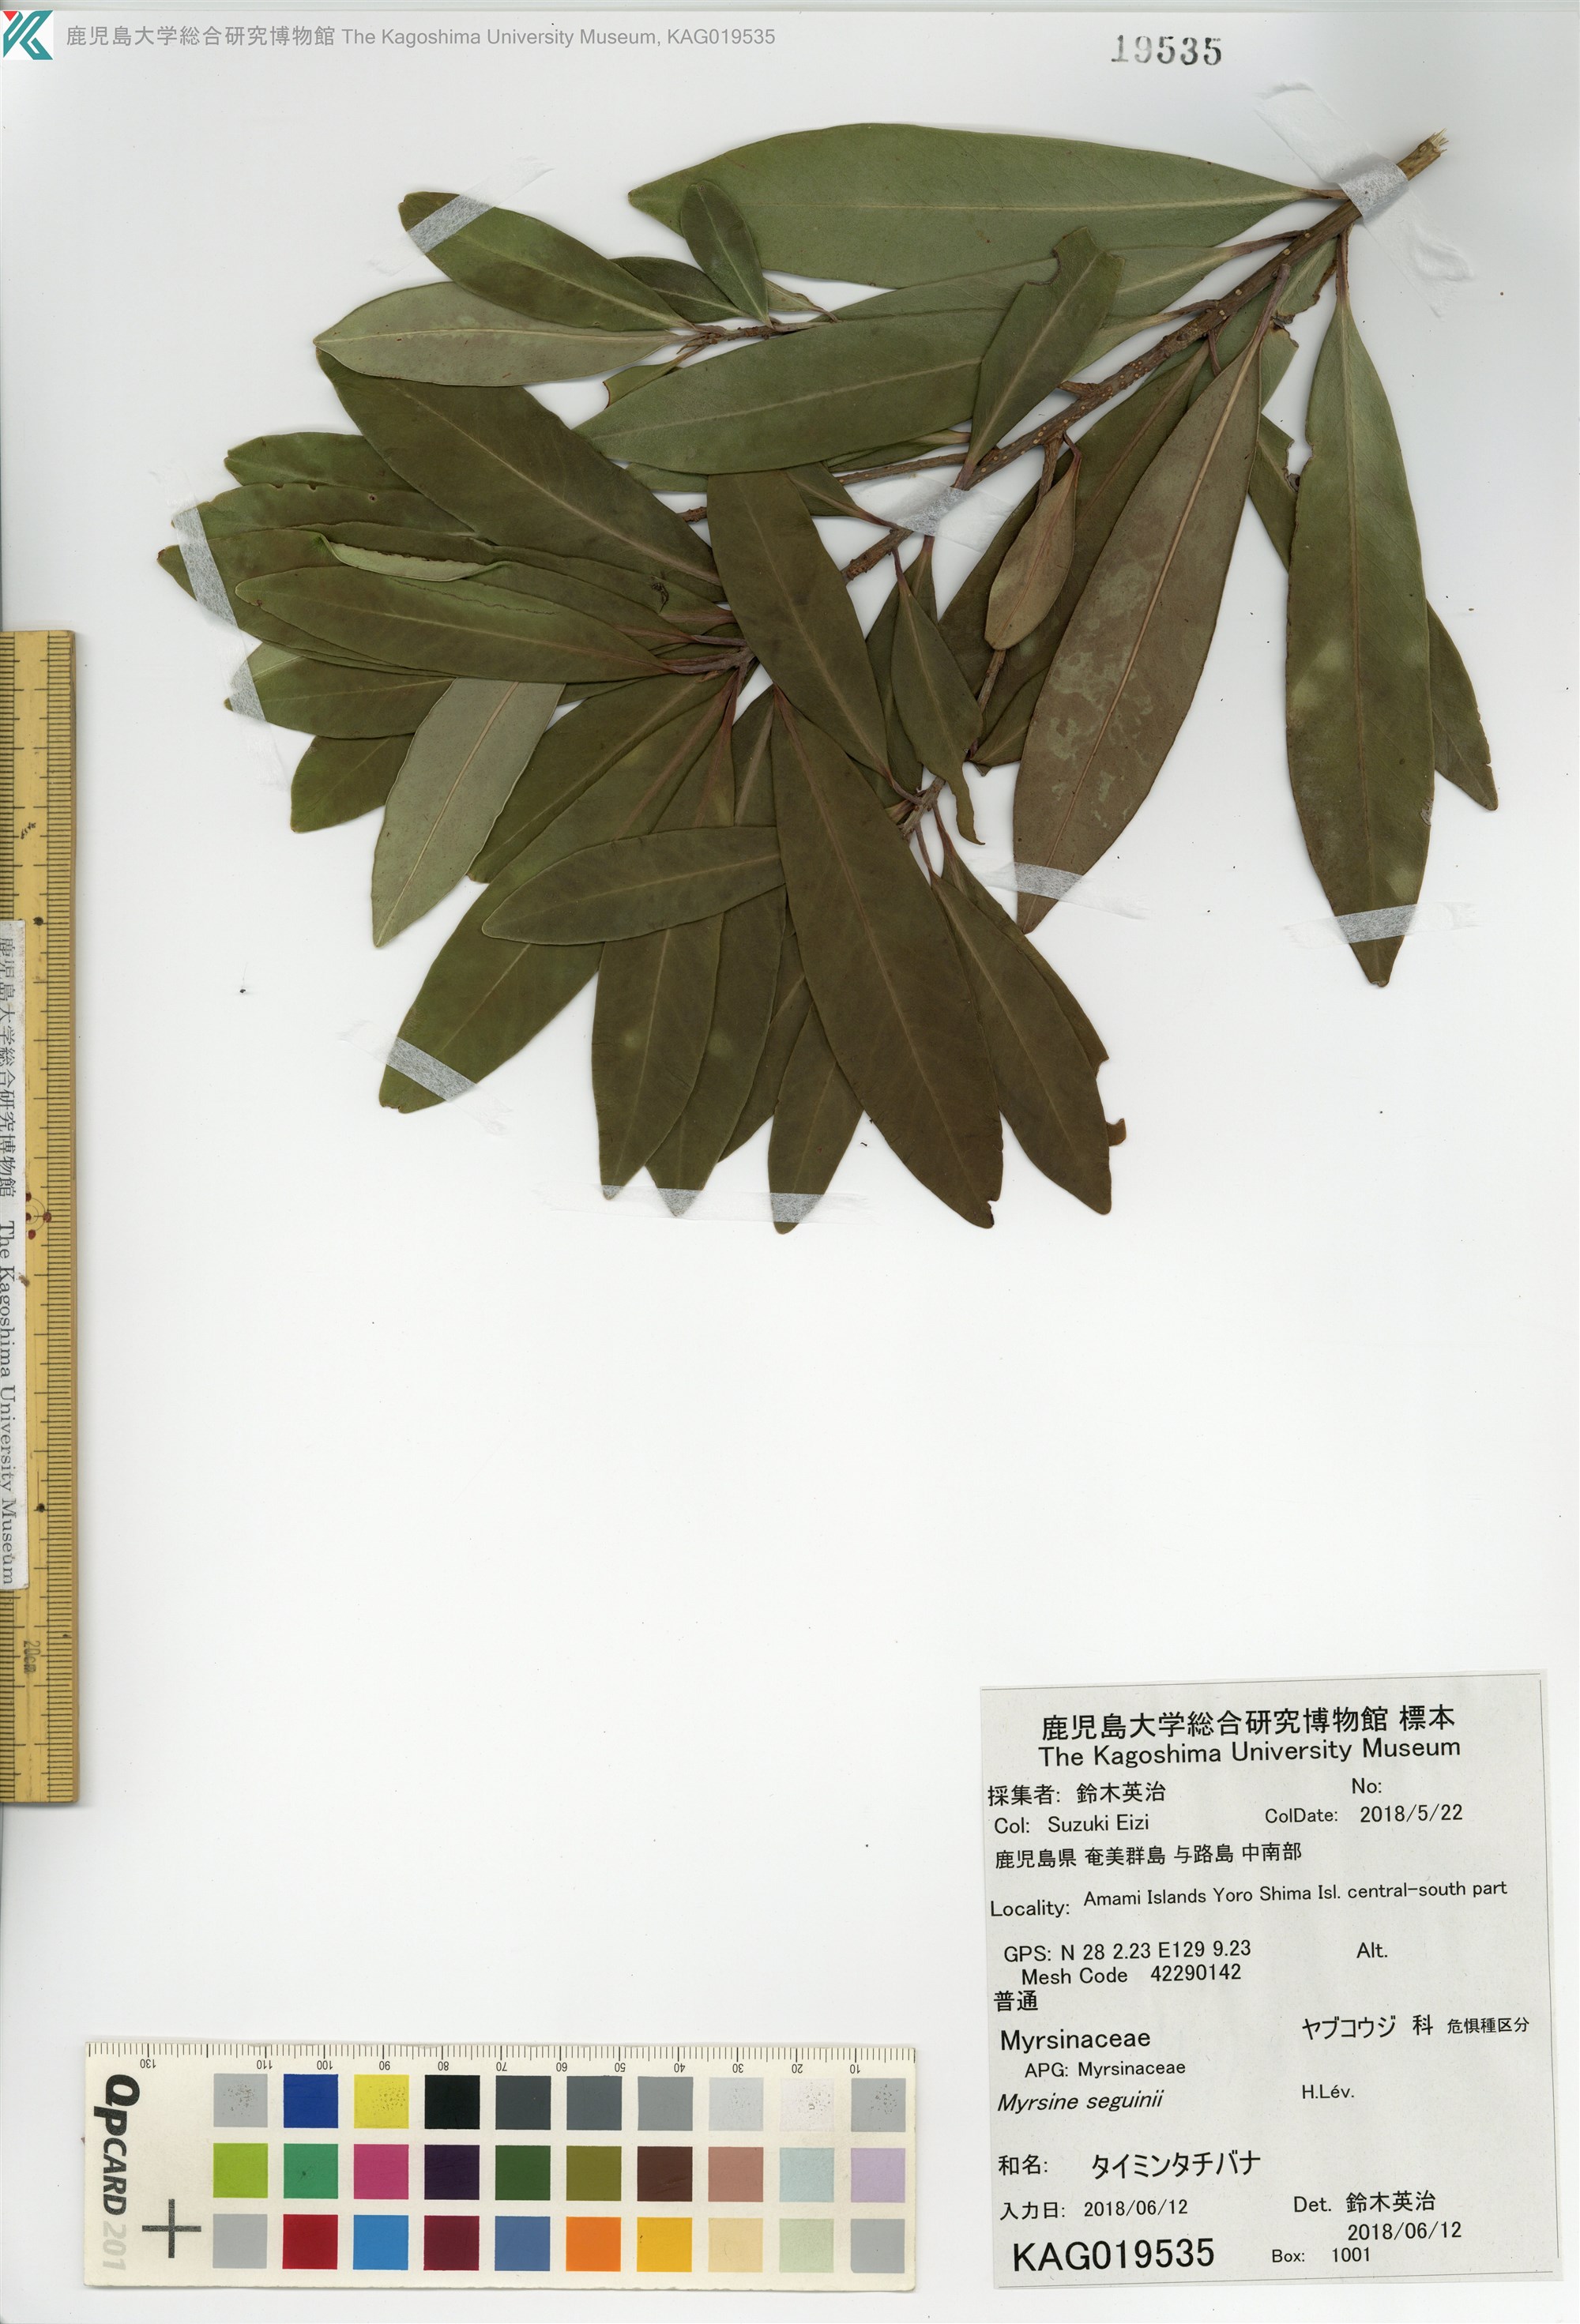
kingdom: Plantae
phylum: Tracheophyta
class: Magnoliopsida
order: Ericales
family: Primulaceae
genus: Myrsine
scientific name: Myrsine seguinii
